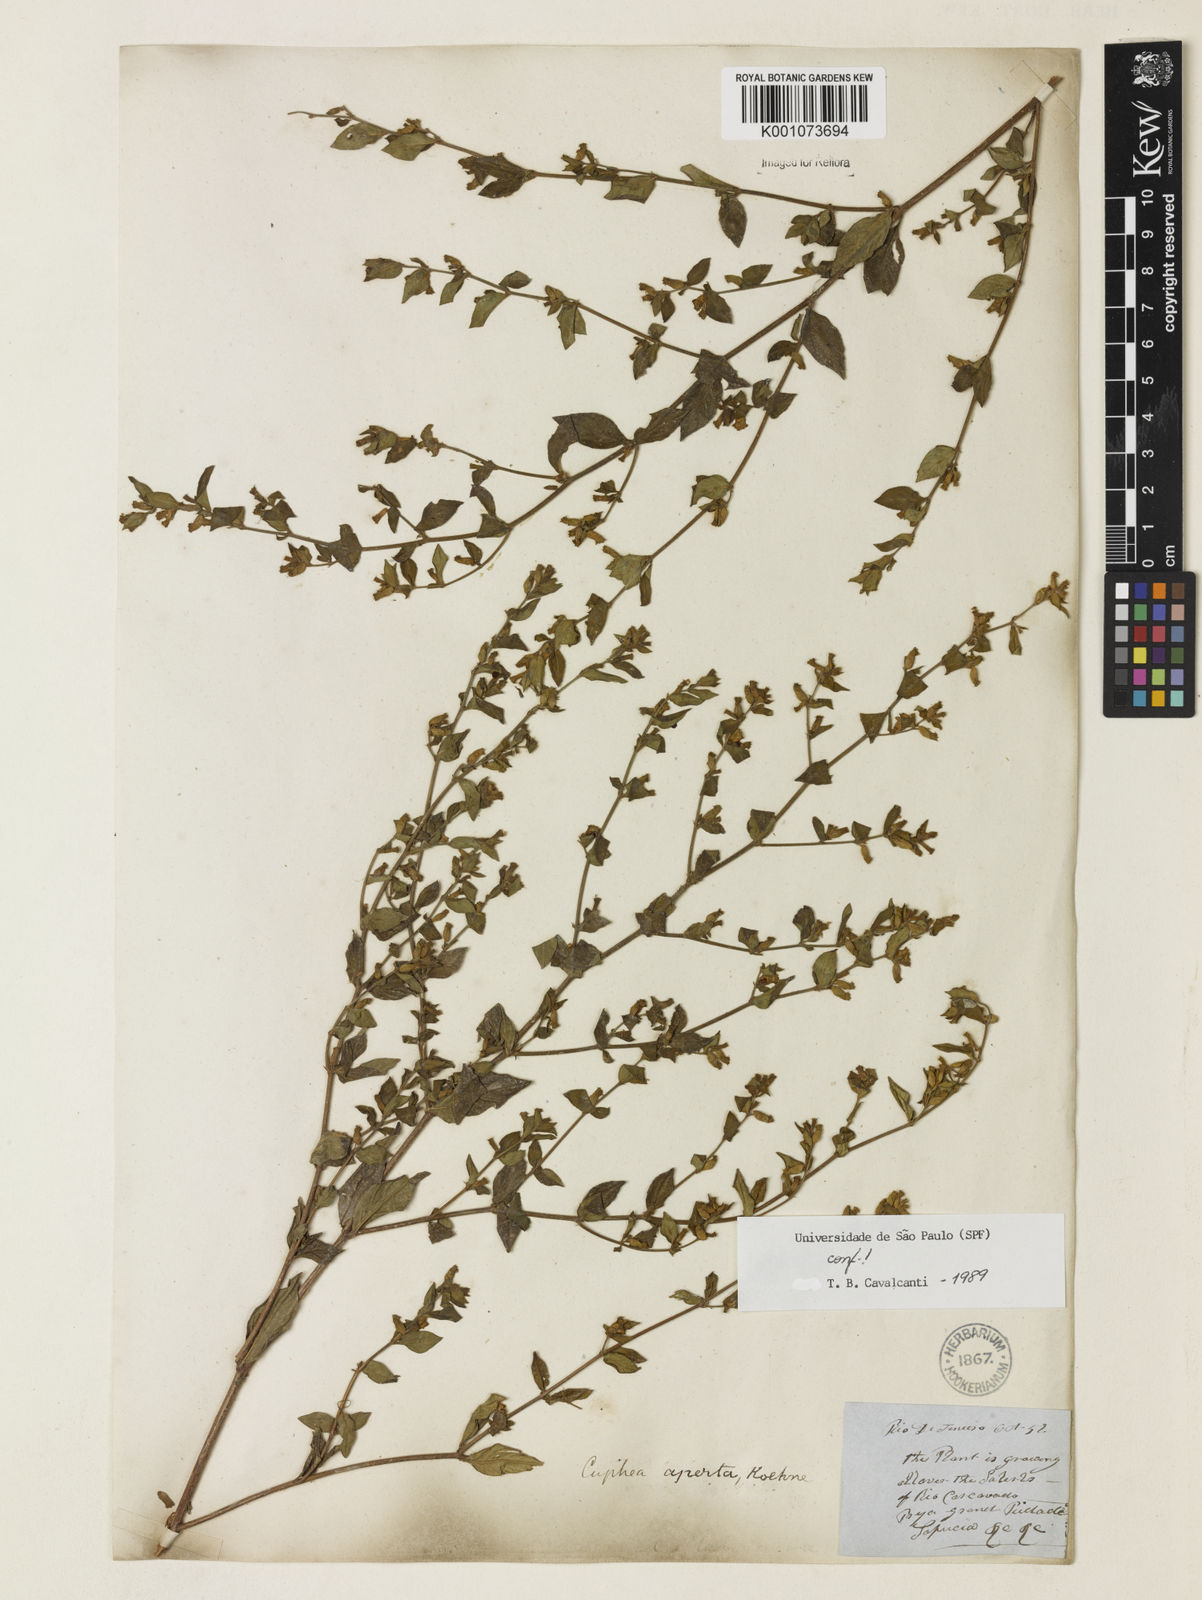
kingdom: Plantae
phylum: Tracheophyta
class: Magnoliopsida
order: Myrtales
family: Lythraceae
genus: Cuphea
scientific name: Cuphea aperta
